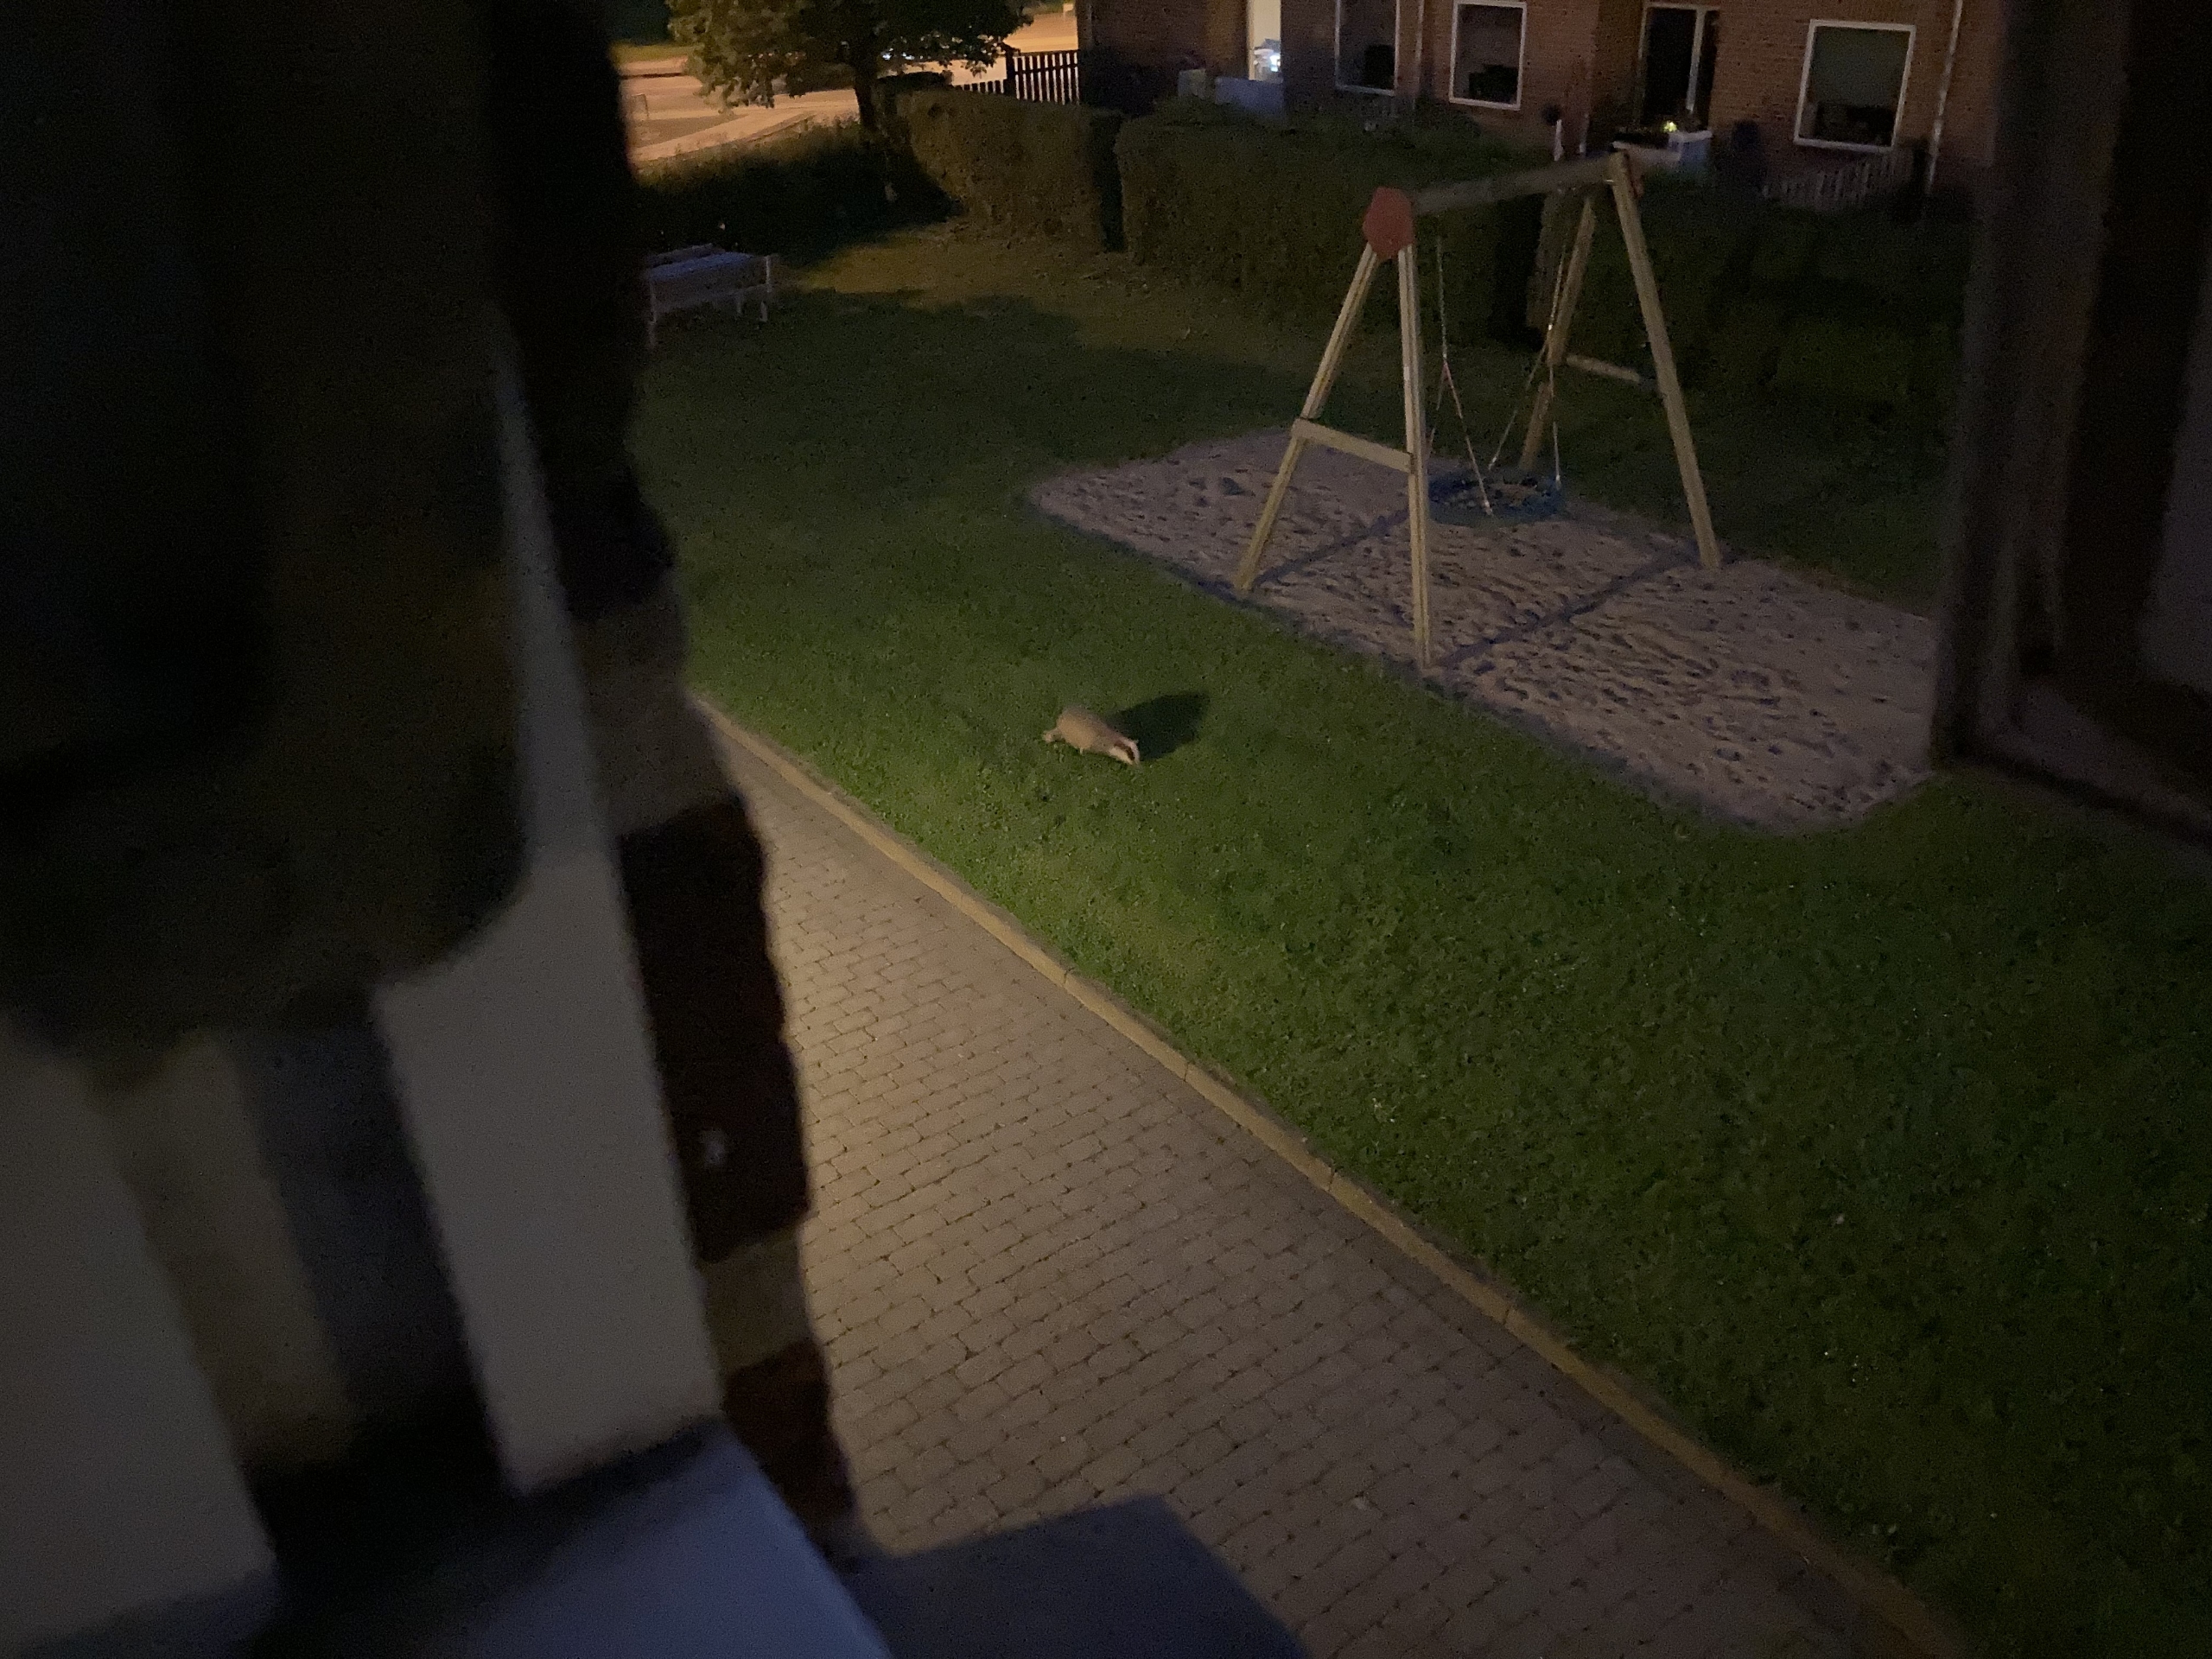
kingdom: Animalia
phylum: Chordata
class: Mammalia
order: Carnivora
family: Mustelidae
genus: Meles
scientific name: Meles meles
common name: Grævling
